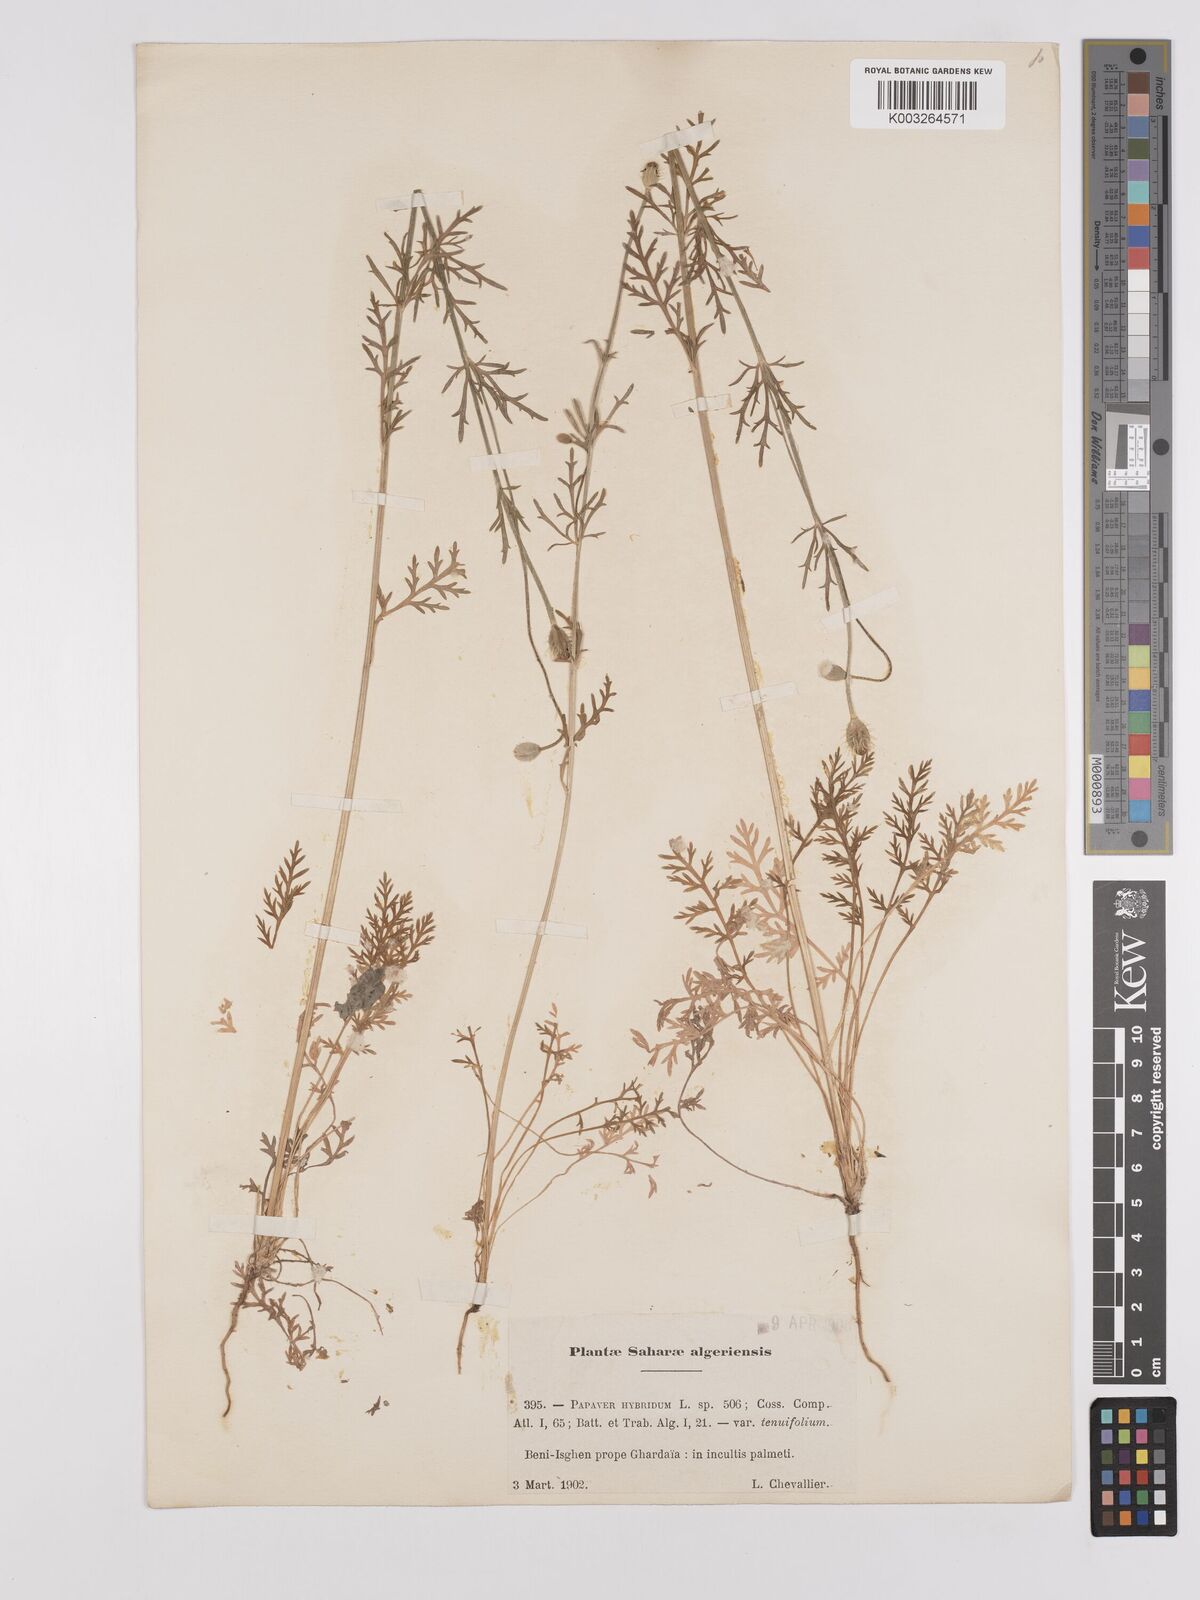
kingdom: Plantae
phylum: Tracheophyta
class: Magnoliopsida
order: Ranunculales
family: Papaveraceae
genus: Papaver
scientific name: Papaver
